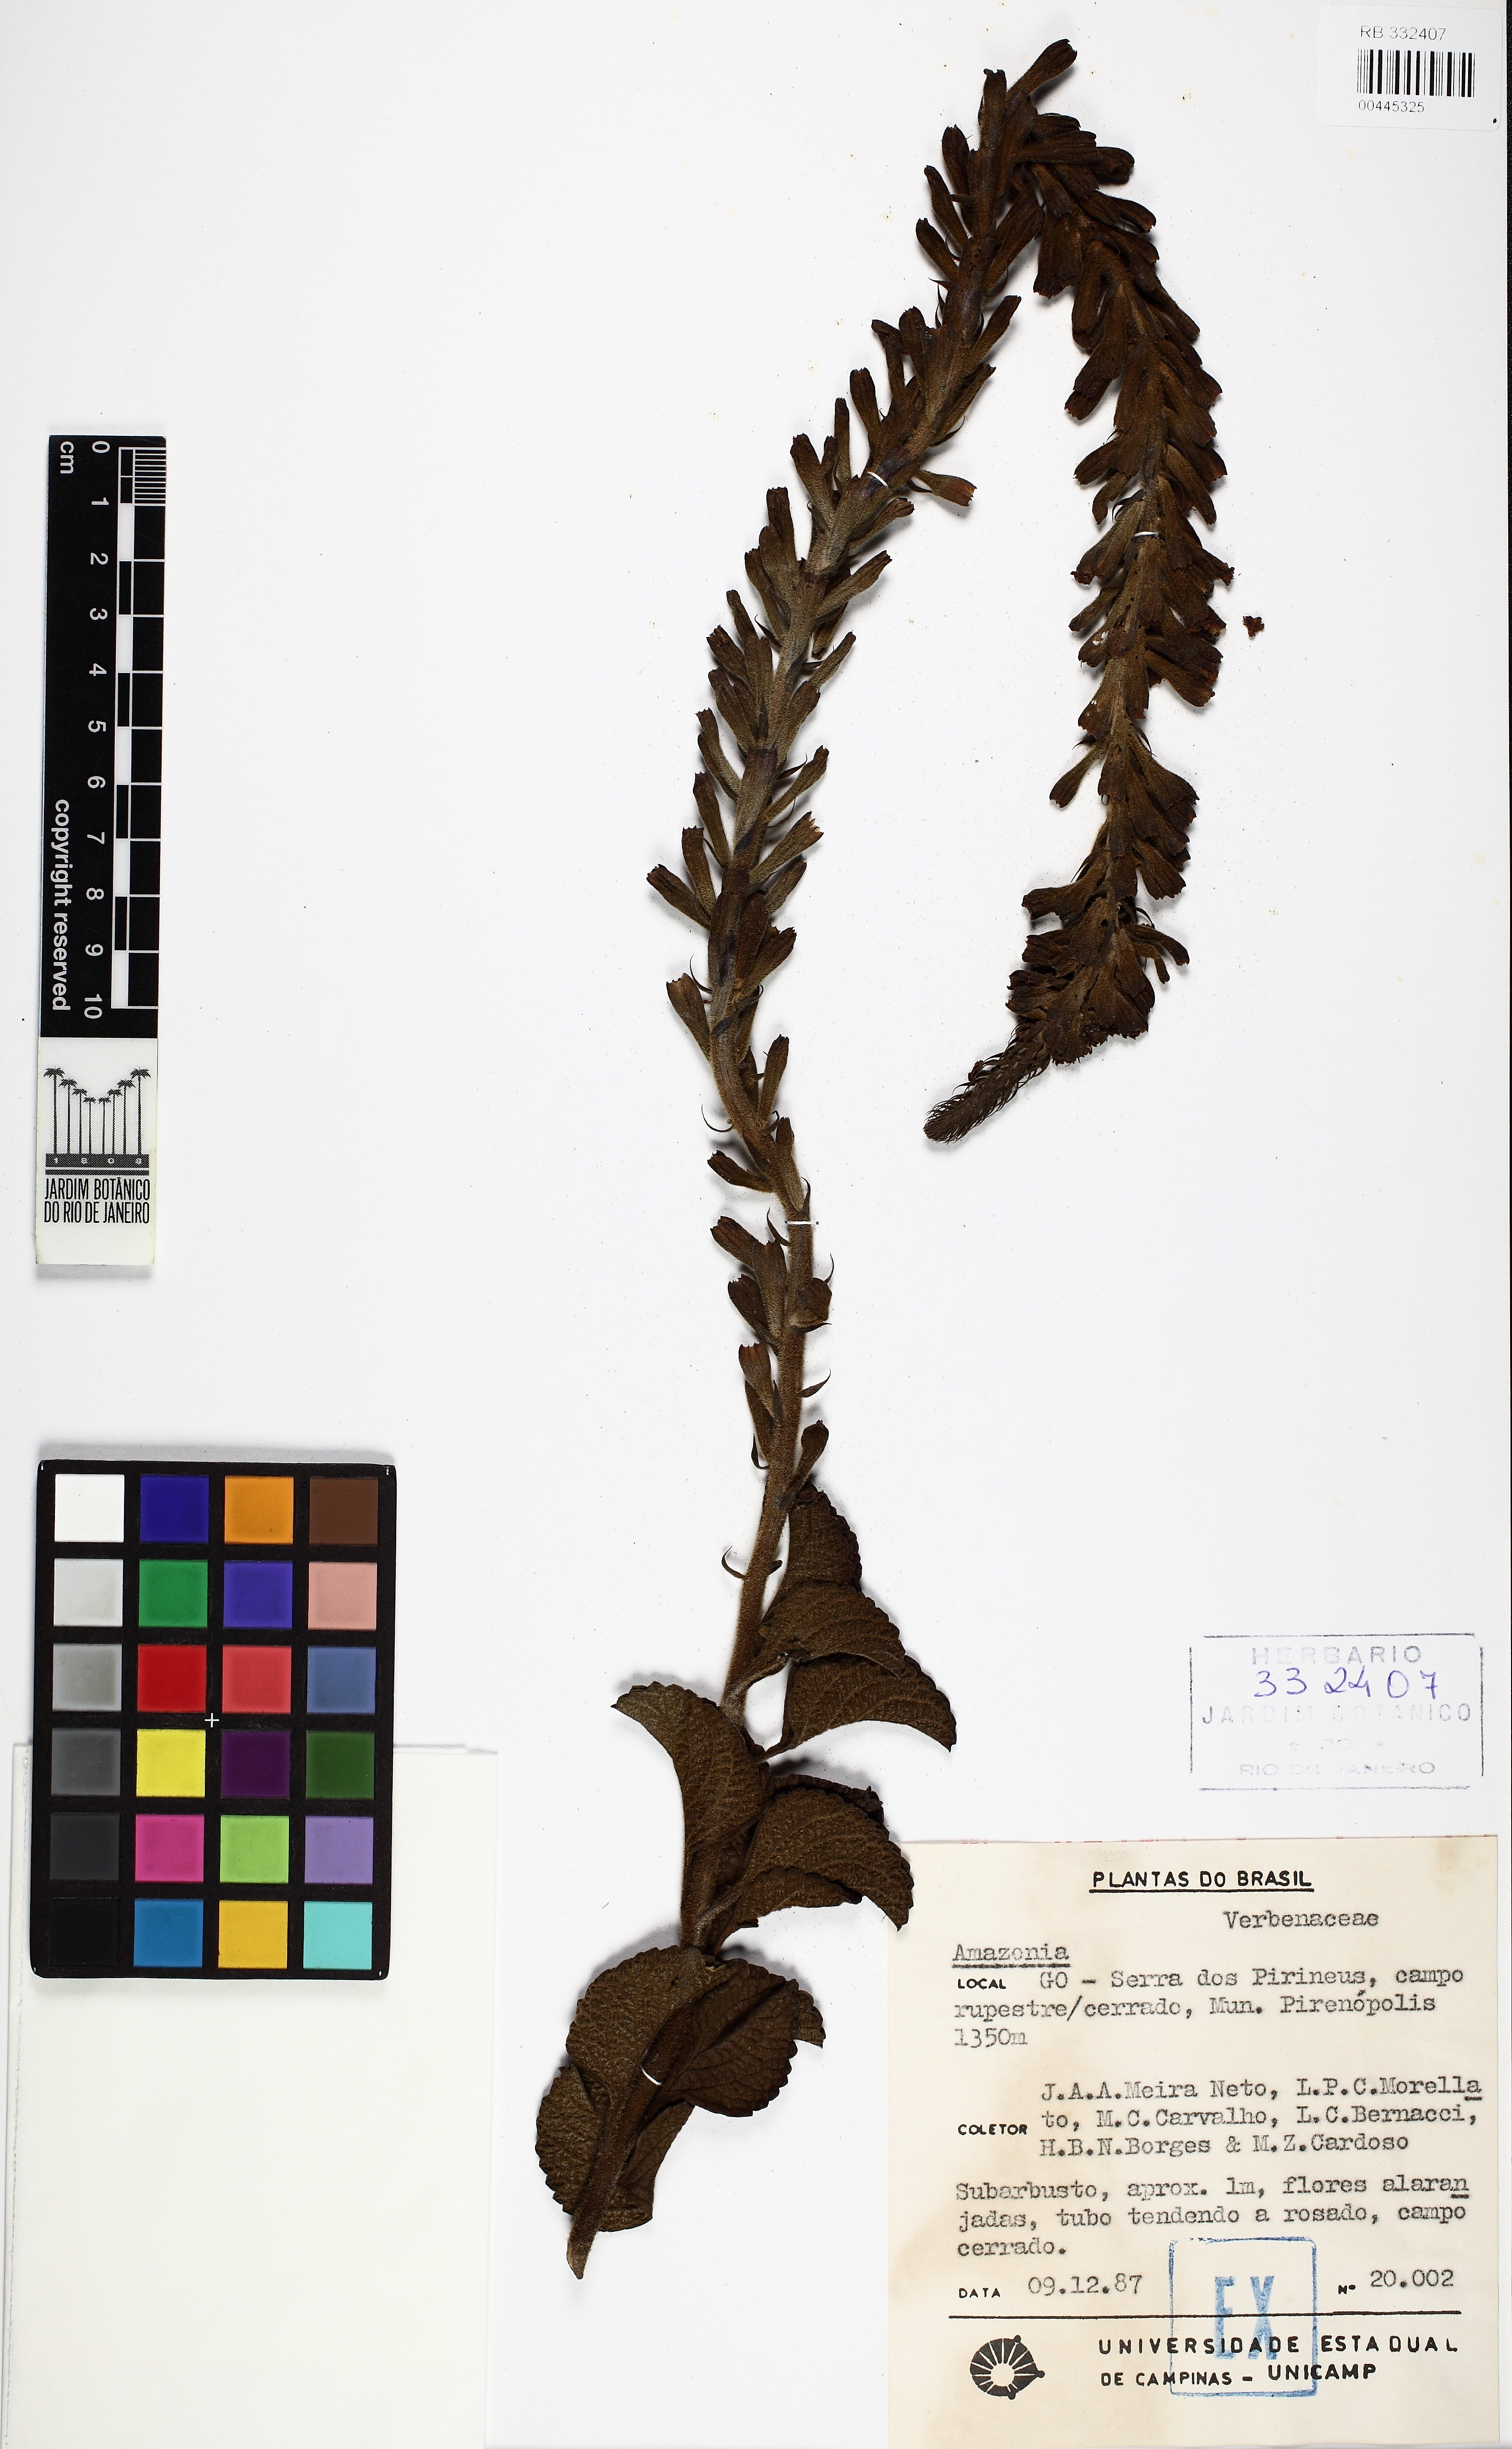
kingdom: Plantae
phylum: Tracheophyta
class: Magnoliopsida
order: Lamiales
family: Lamiaceae
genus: Amasonia
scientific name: Amasonia
